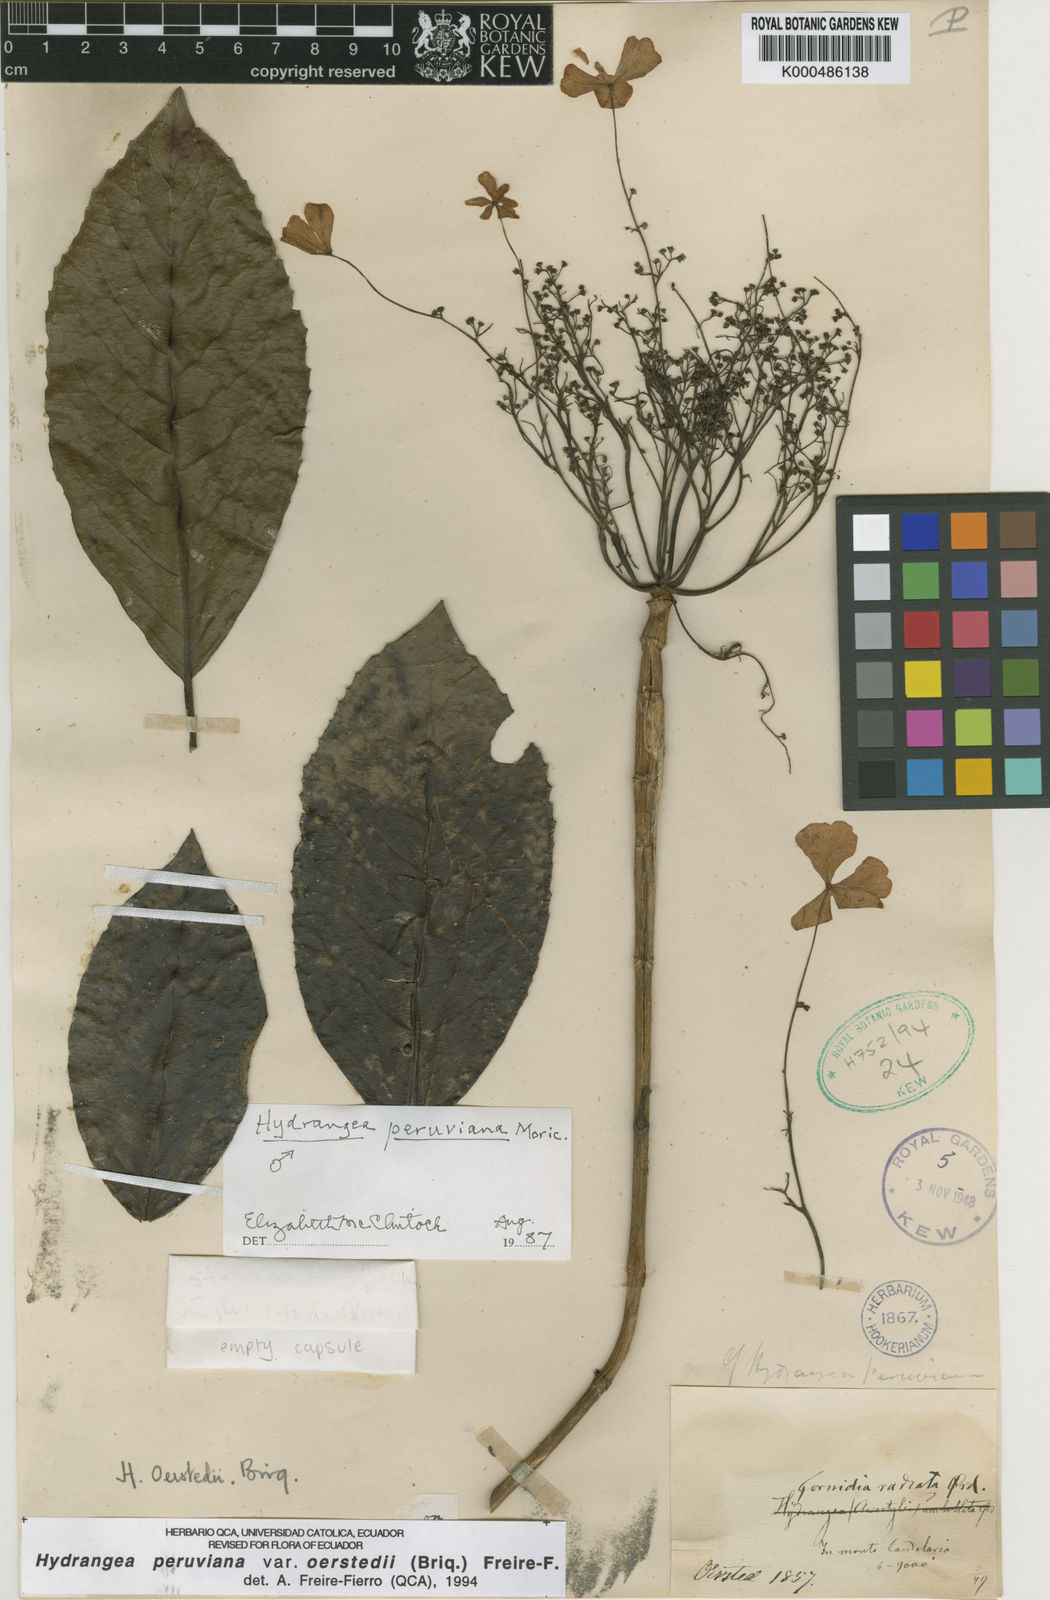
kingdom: Plantae
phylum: Tracheophyta
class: Magnoliopsida
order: Cornales
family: Hydrangeaceae
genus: Hydrangea
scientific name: Hydrangea
